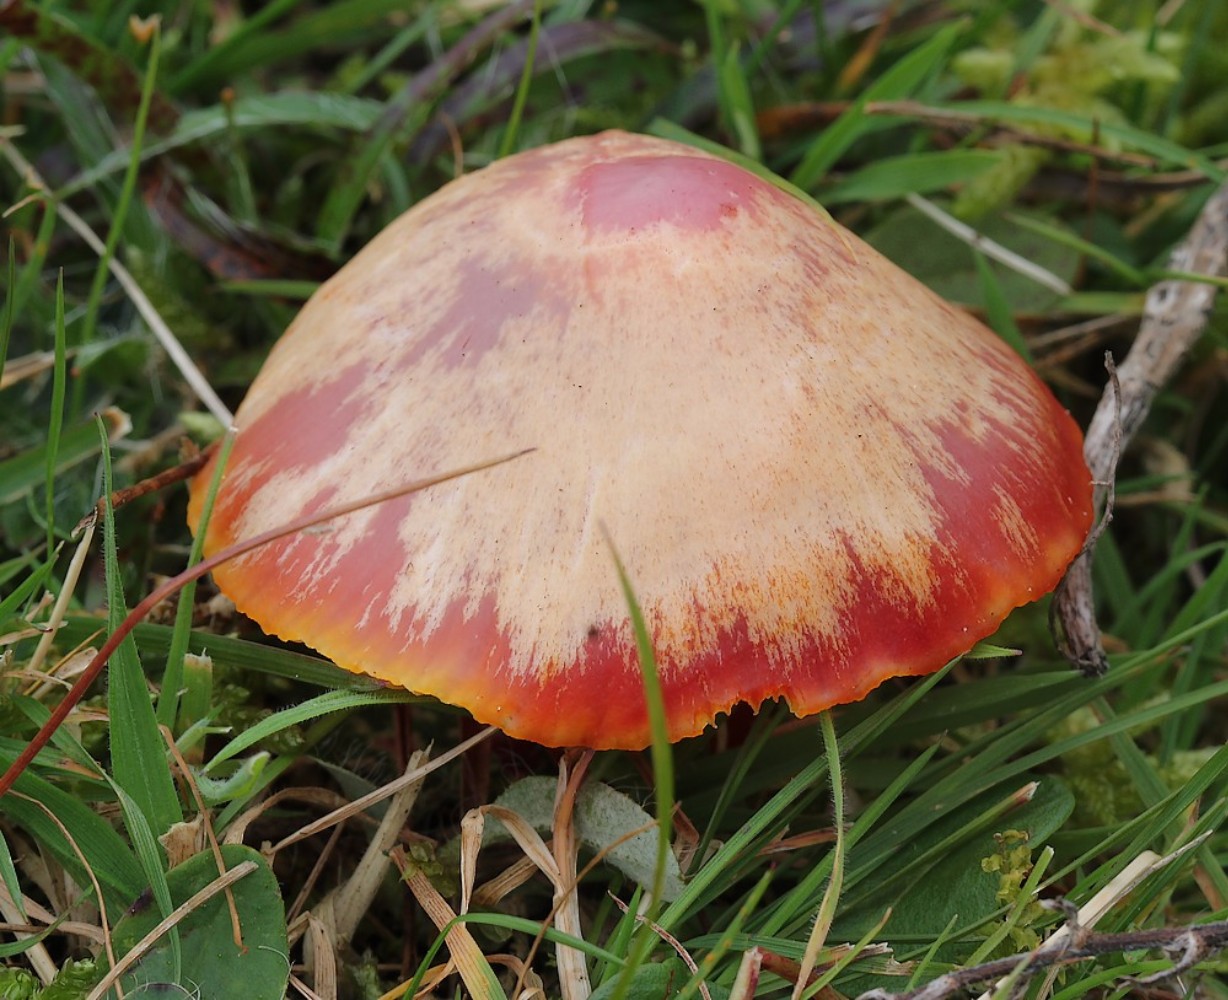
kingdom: Fungi
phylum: Basidiomycota
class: Agaricomycetes
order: Agaricales
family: Hygrophoraceae
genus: Hygrocybe
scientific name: Hygrocybe coccinea
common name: cinnober-vokshat
